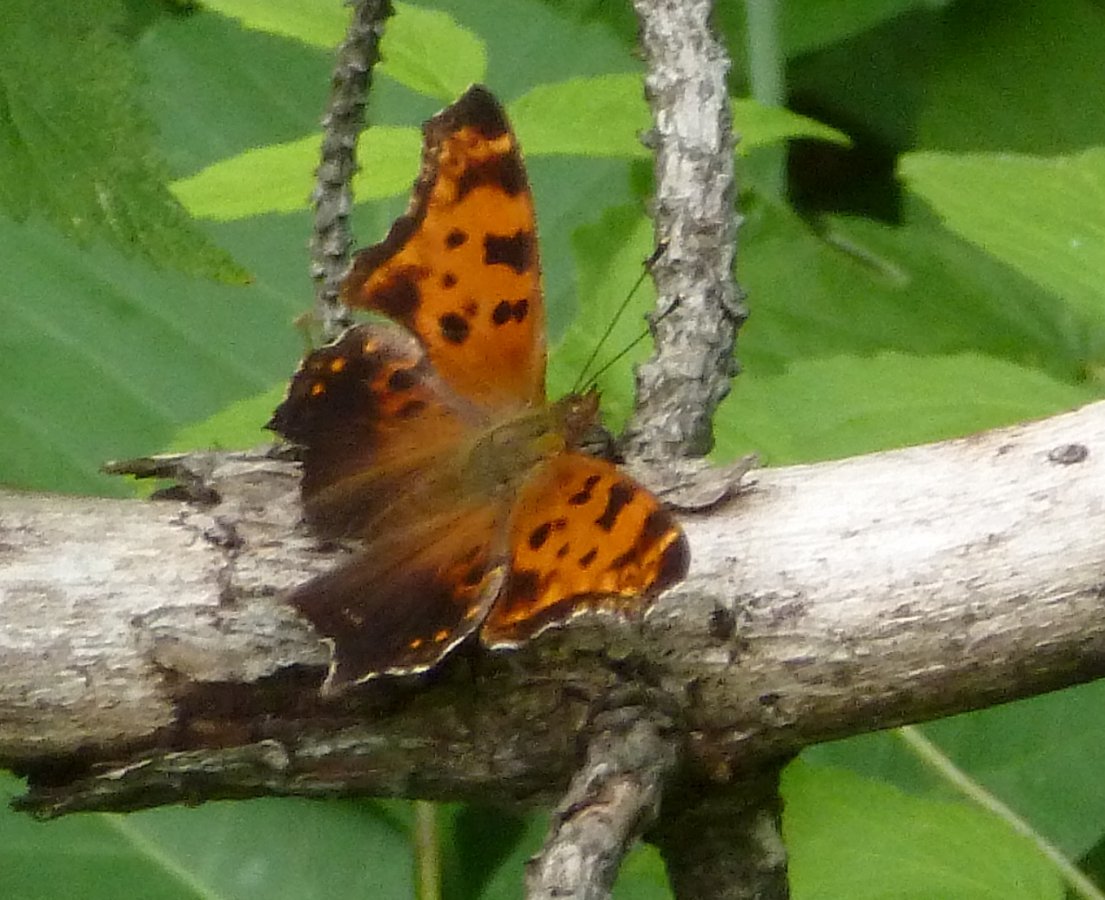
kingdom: Animalia
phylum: Arthropoda
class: Insecta
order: Lepidoptera
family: Nymphalidae
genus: Polygonia
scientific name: Polygonia comma
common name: Eastern Comma
